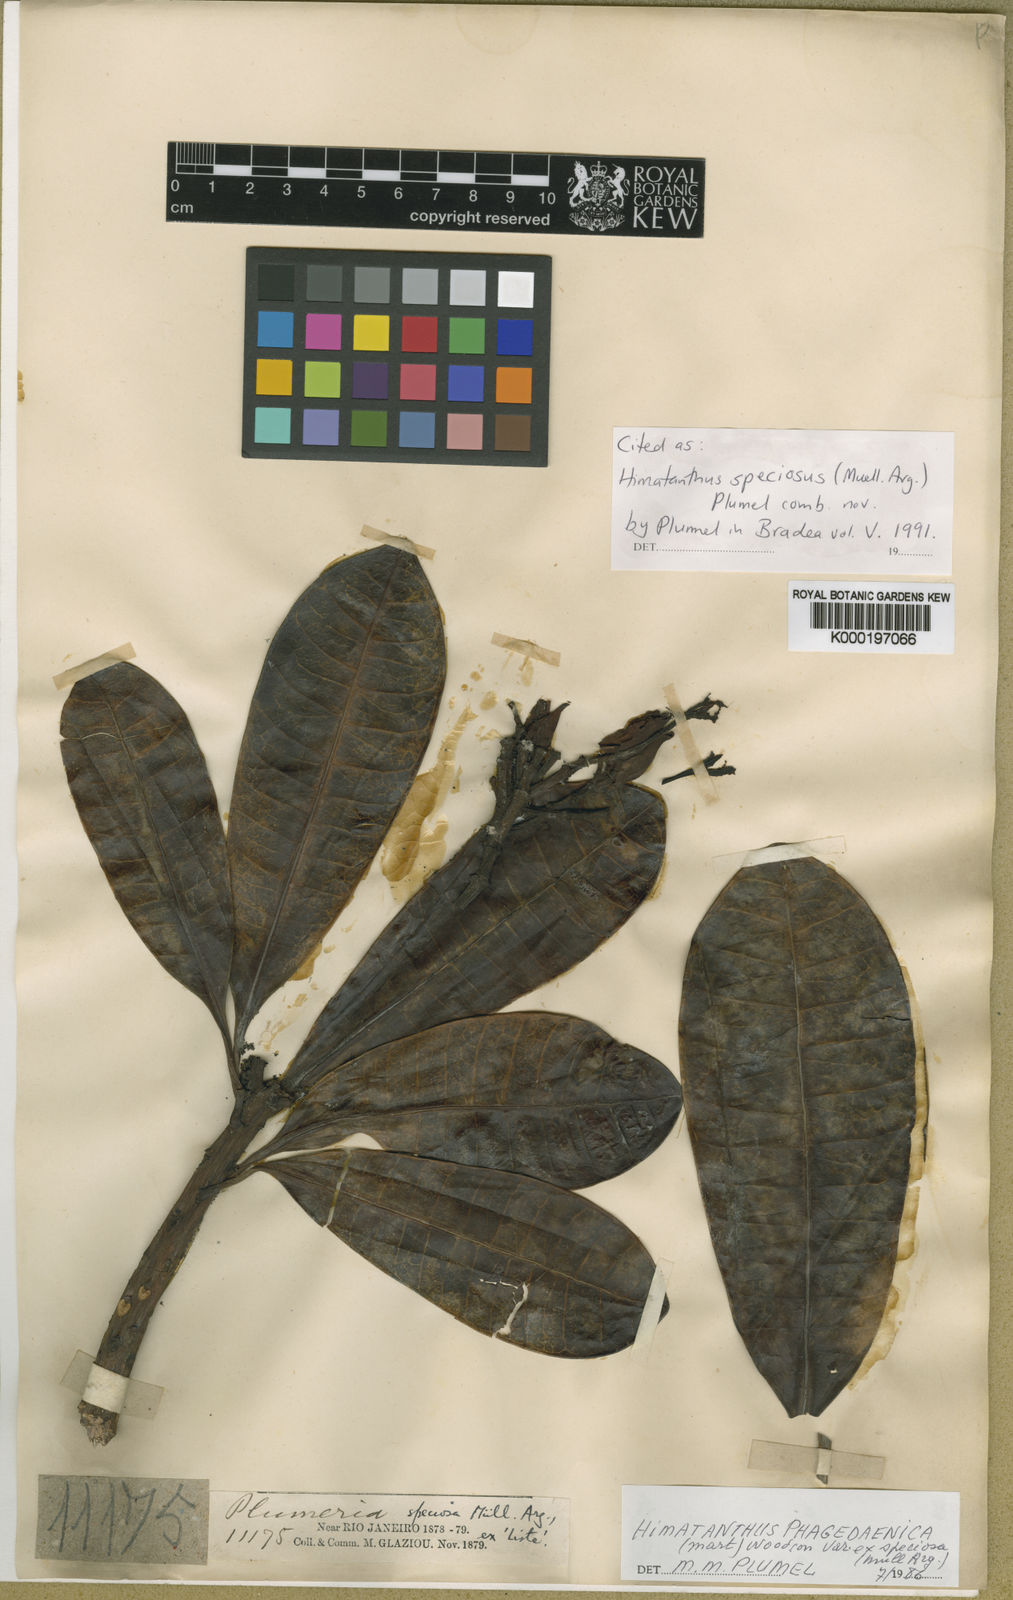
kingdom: Plantae
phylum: Tracheophyta
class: Magnoliopsida
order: Gentianales
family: Apocynaceae
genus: Himatanthus
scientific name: Himatanthus
